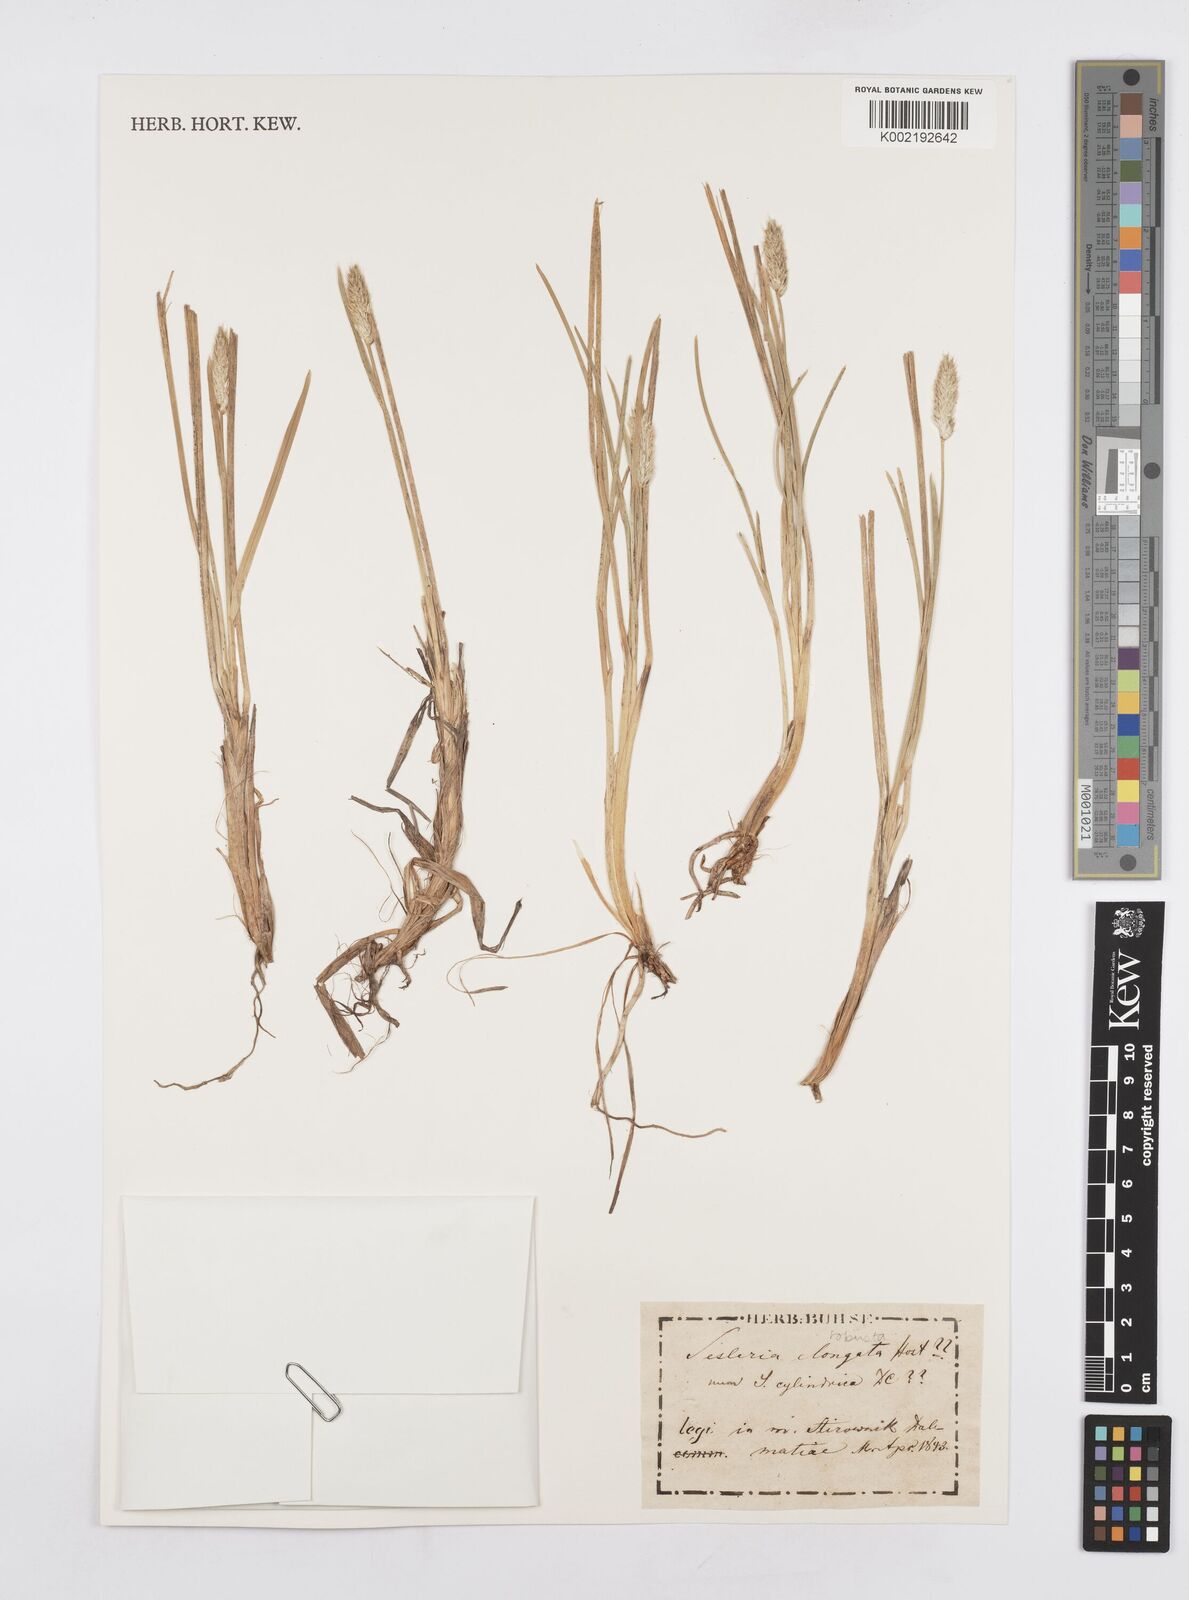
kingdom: Plantae
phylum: Tracheophyta
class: Liliopsida
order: Poales
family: Poaceae
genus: Sesleria
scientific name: Sesleria robusta
